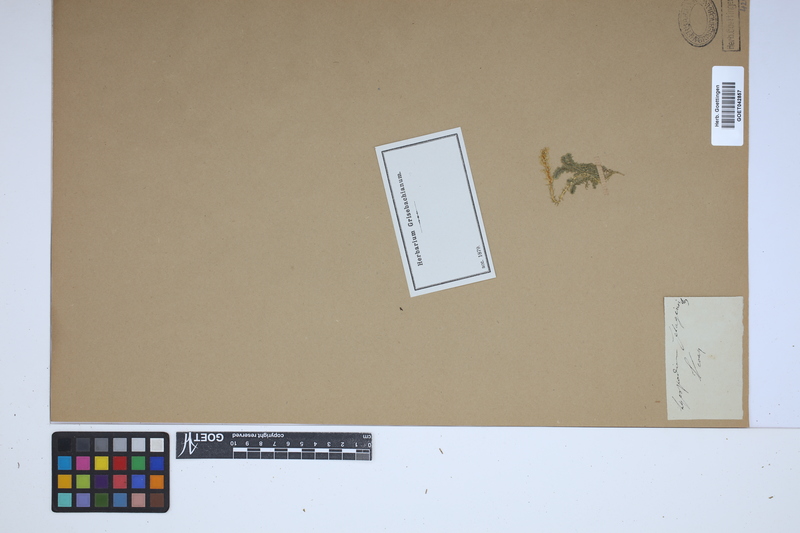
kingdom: Plantae
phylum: Tracheophyta
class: Lycopodiopsida
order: Selaginellales
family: Selaginellaceae
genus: Selaginella
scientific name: Selaginella selaginoides
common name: Prickly mountain-moss
